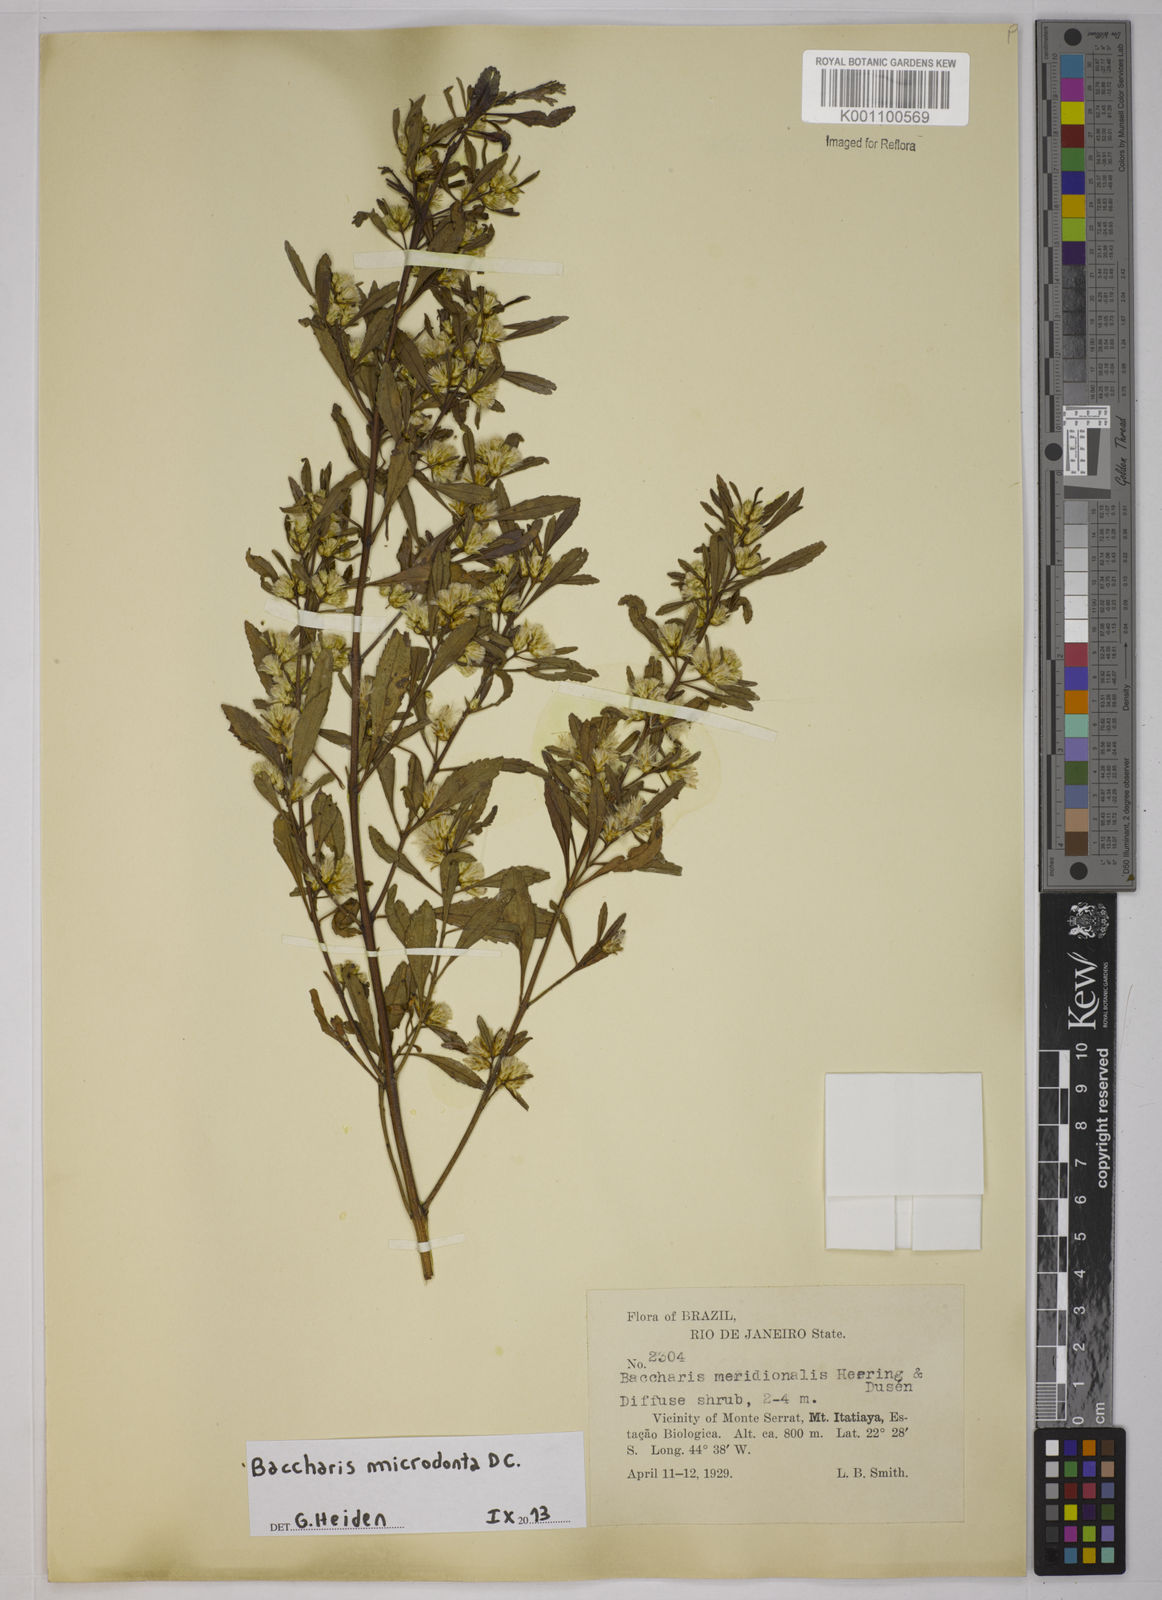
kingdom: Plantae
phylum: Tracheophyta
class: Magnoliopsida
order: Asterales
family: Asteraceae
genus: Baccharis
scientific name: Baccharis microdonta
